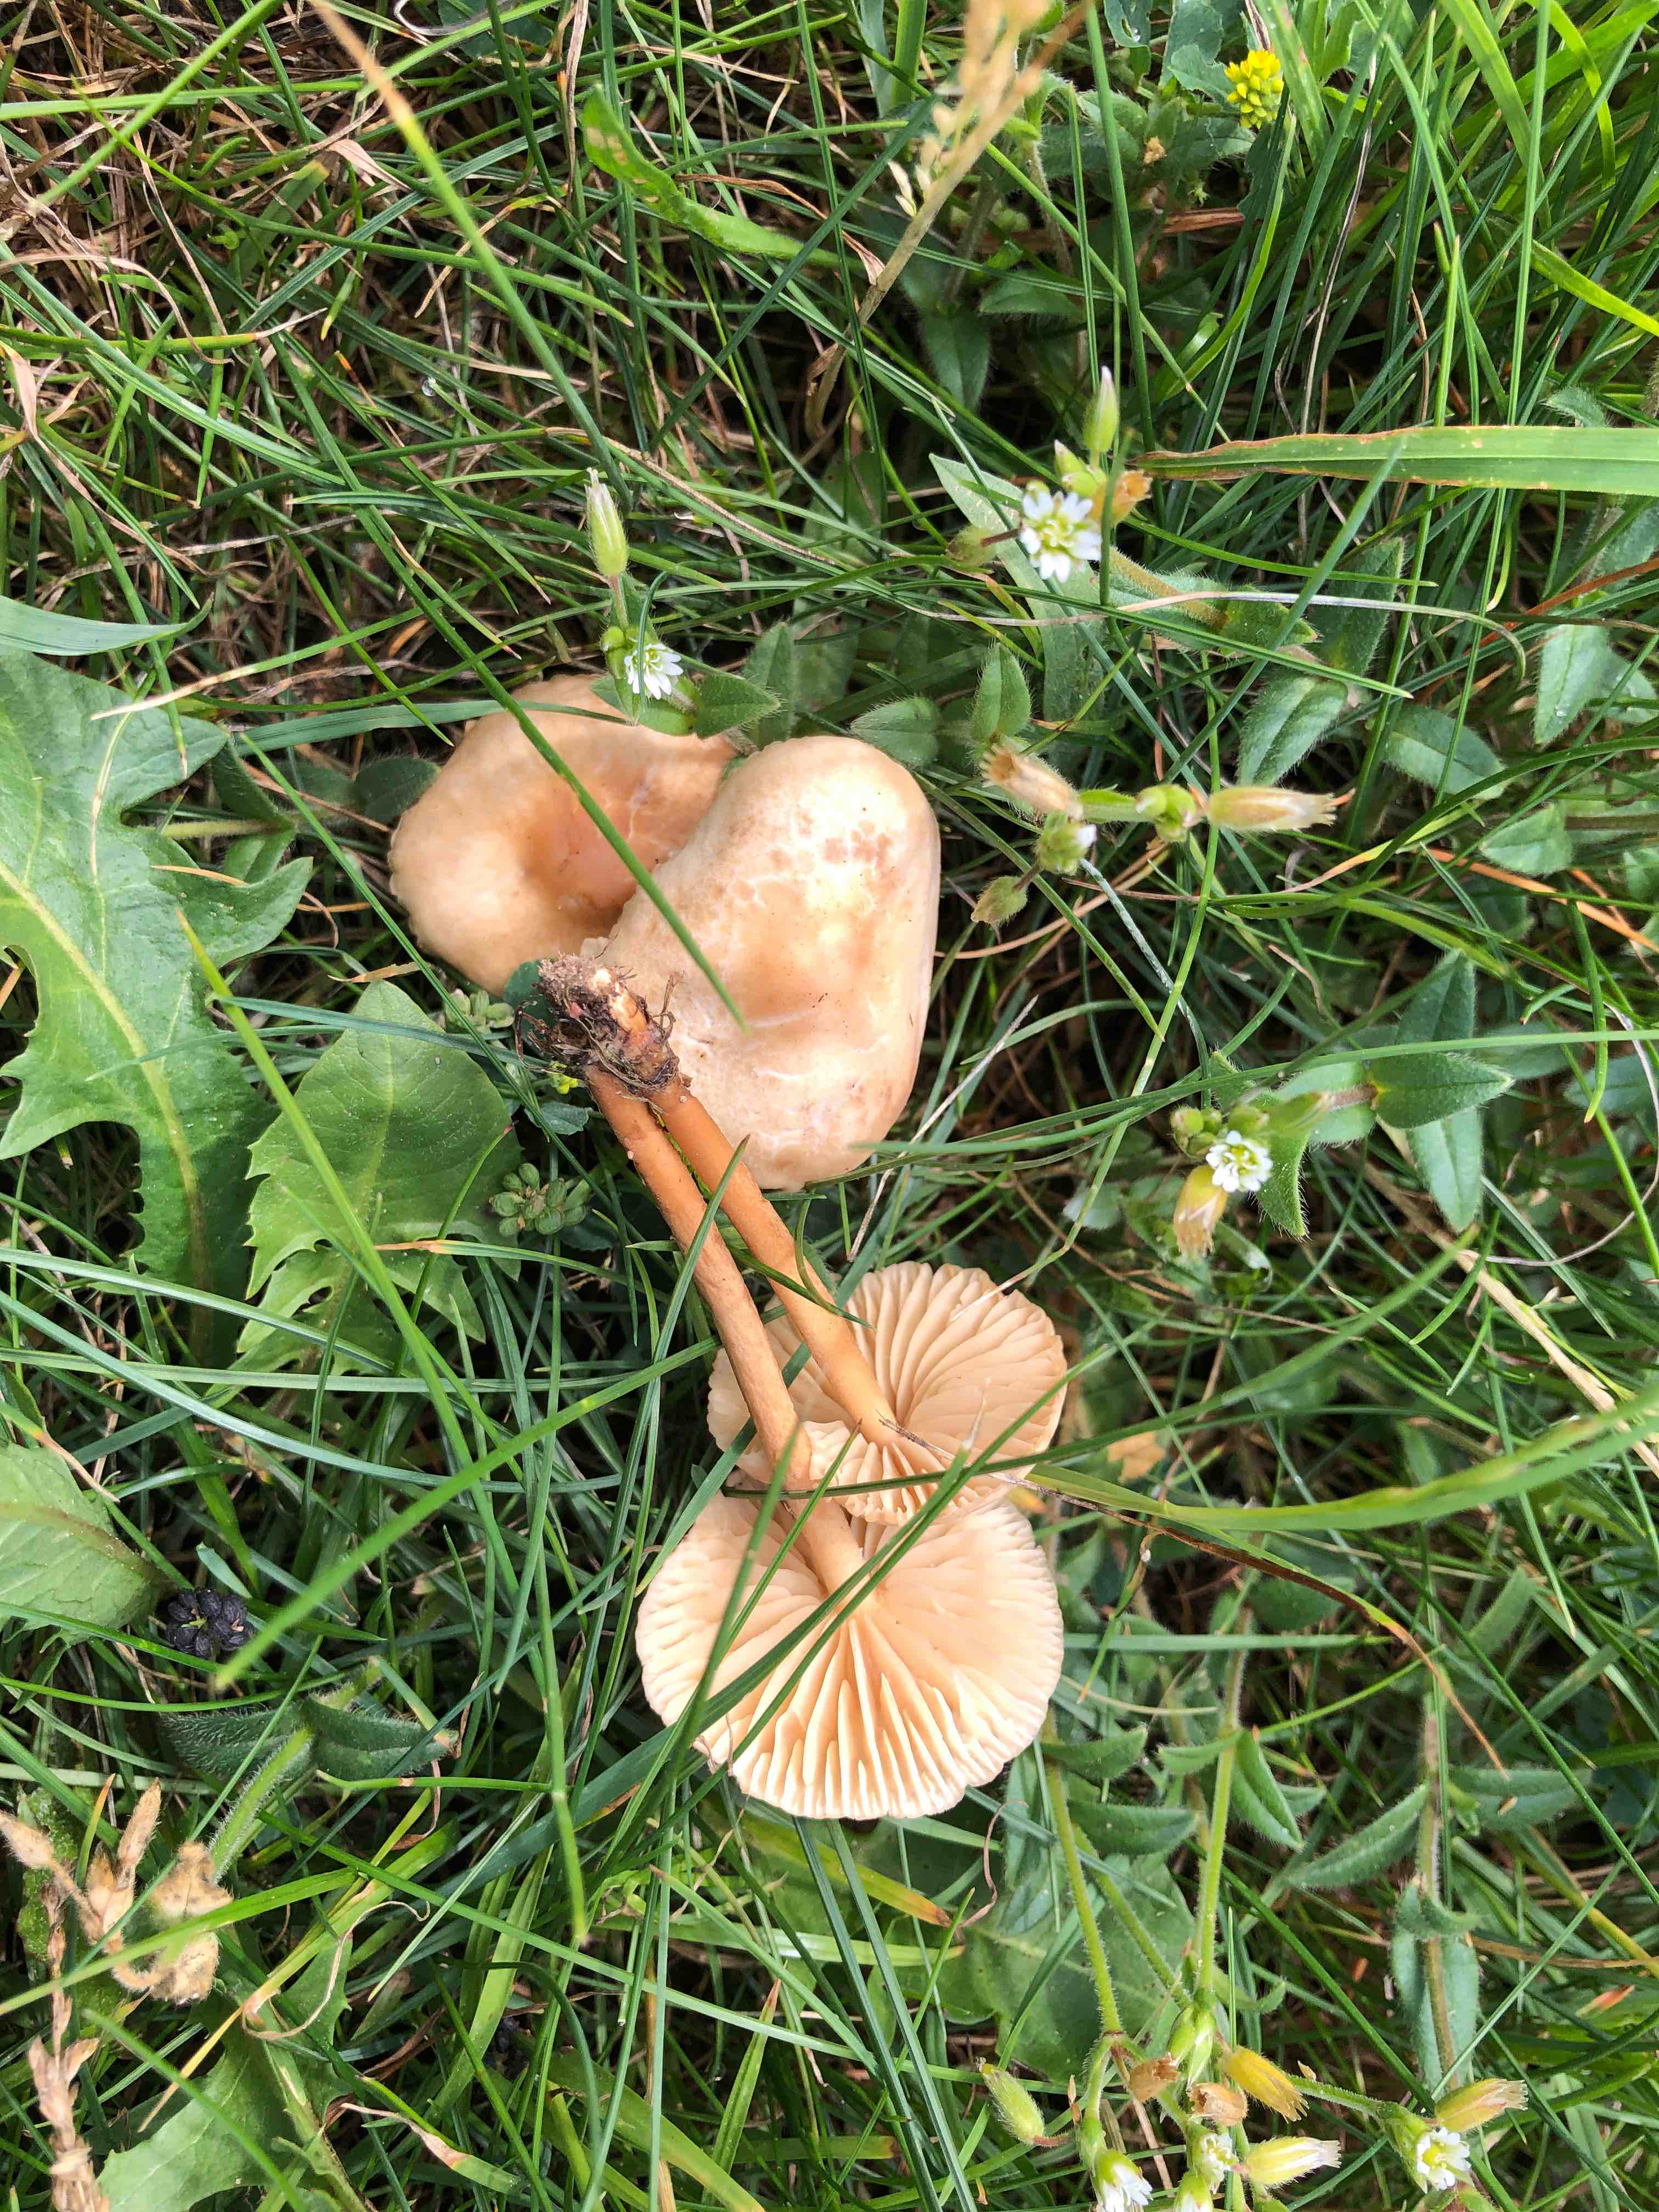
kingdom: Fungi
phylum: Basidiomycota
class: Agaricomycetes
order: Agaricales
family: Marasmiaceae
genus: Marasmius
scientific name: Marasmius oreades
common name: elledans-bruskhat
